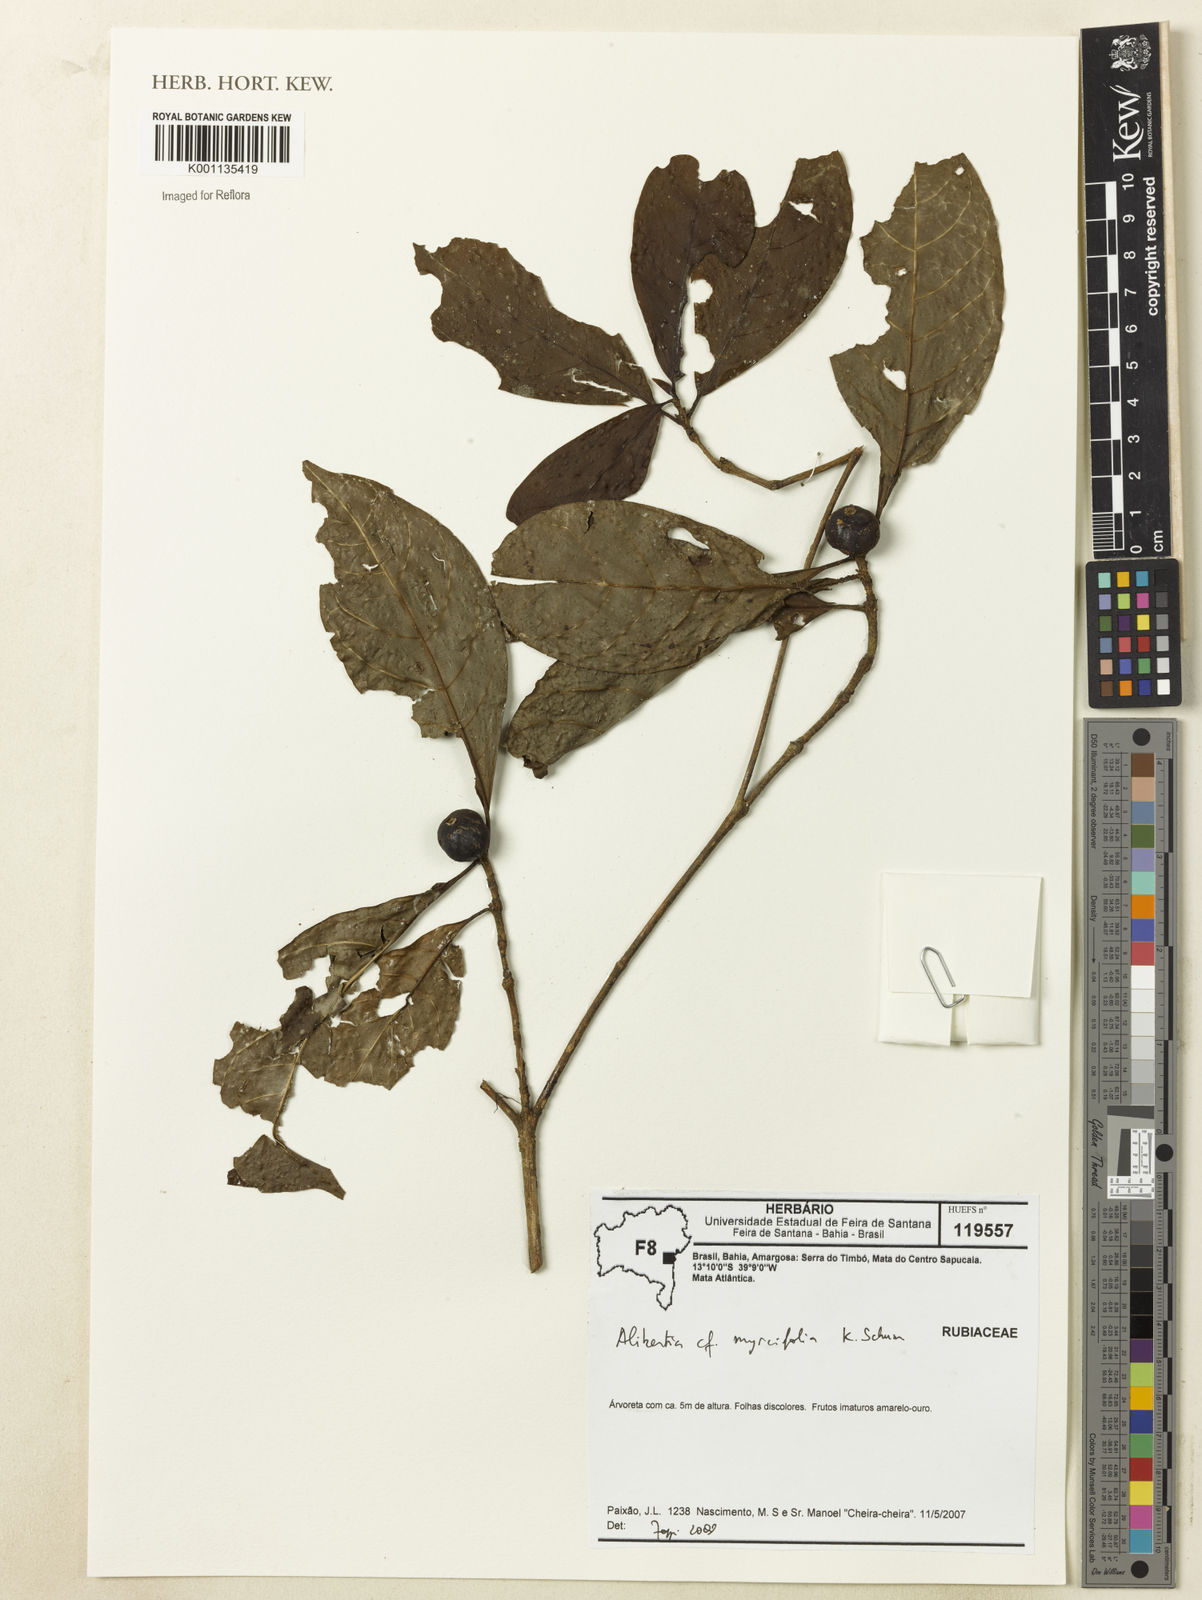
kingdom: Plantae
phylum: Tracheophyta
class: Magnoliopsida
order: Gentianales
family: Rubiaceae
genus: Cordiera
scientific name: Cordiera myrciifolia
